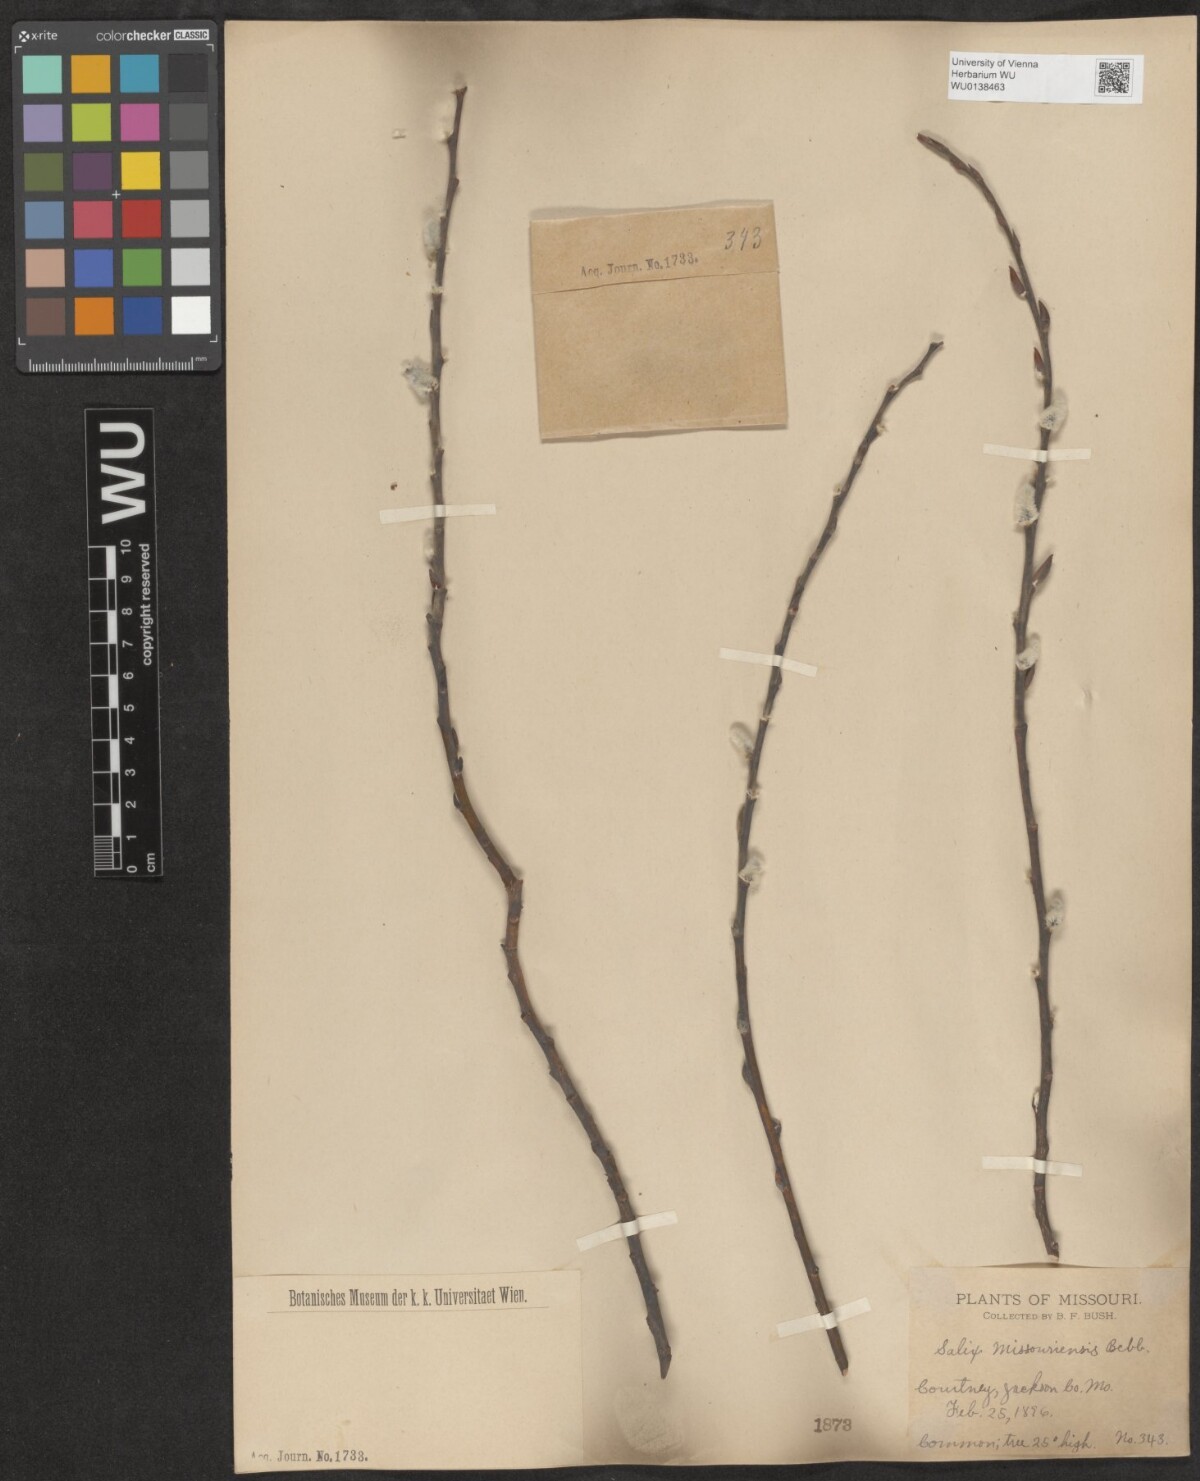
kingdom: Plantae
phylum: Tracheophyta
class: Magnoliopsida
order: Malpighiales
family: Salicaceae
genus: Salix
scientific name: Salix eriocephala
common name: Heart-leaved willow
